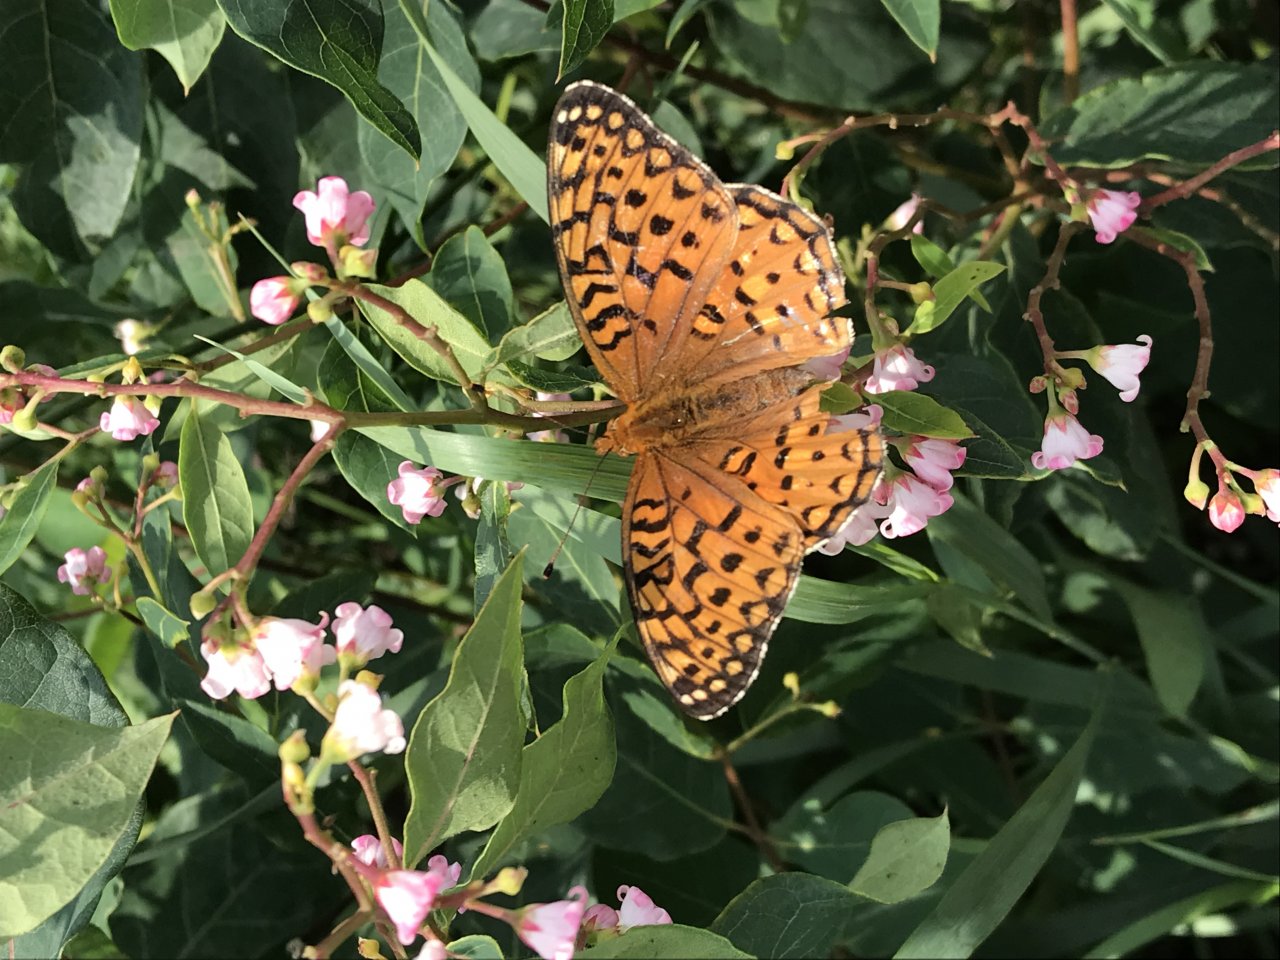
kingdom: Animalia
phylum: Arthropoda
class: Insecta
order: Lepidoptera
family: Nymphalidae
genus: Speyeria
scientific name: Speyeria aphrodite
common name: Aphrodite Fritillary
